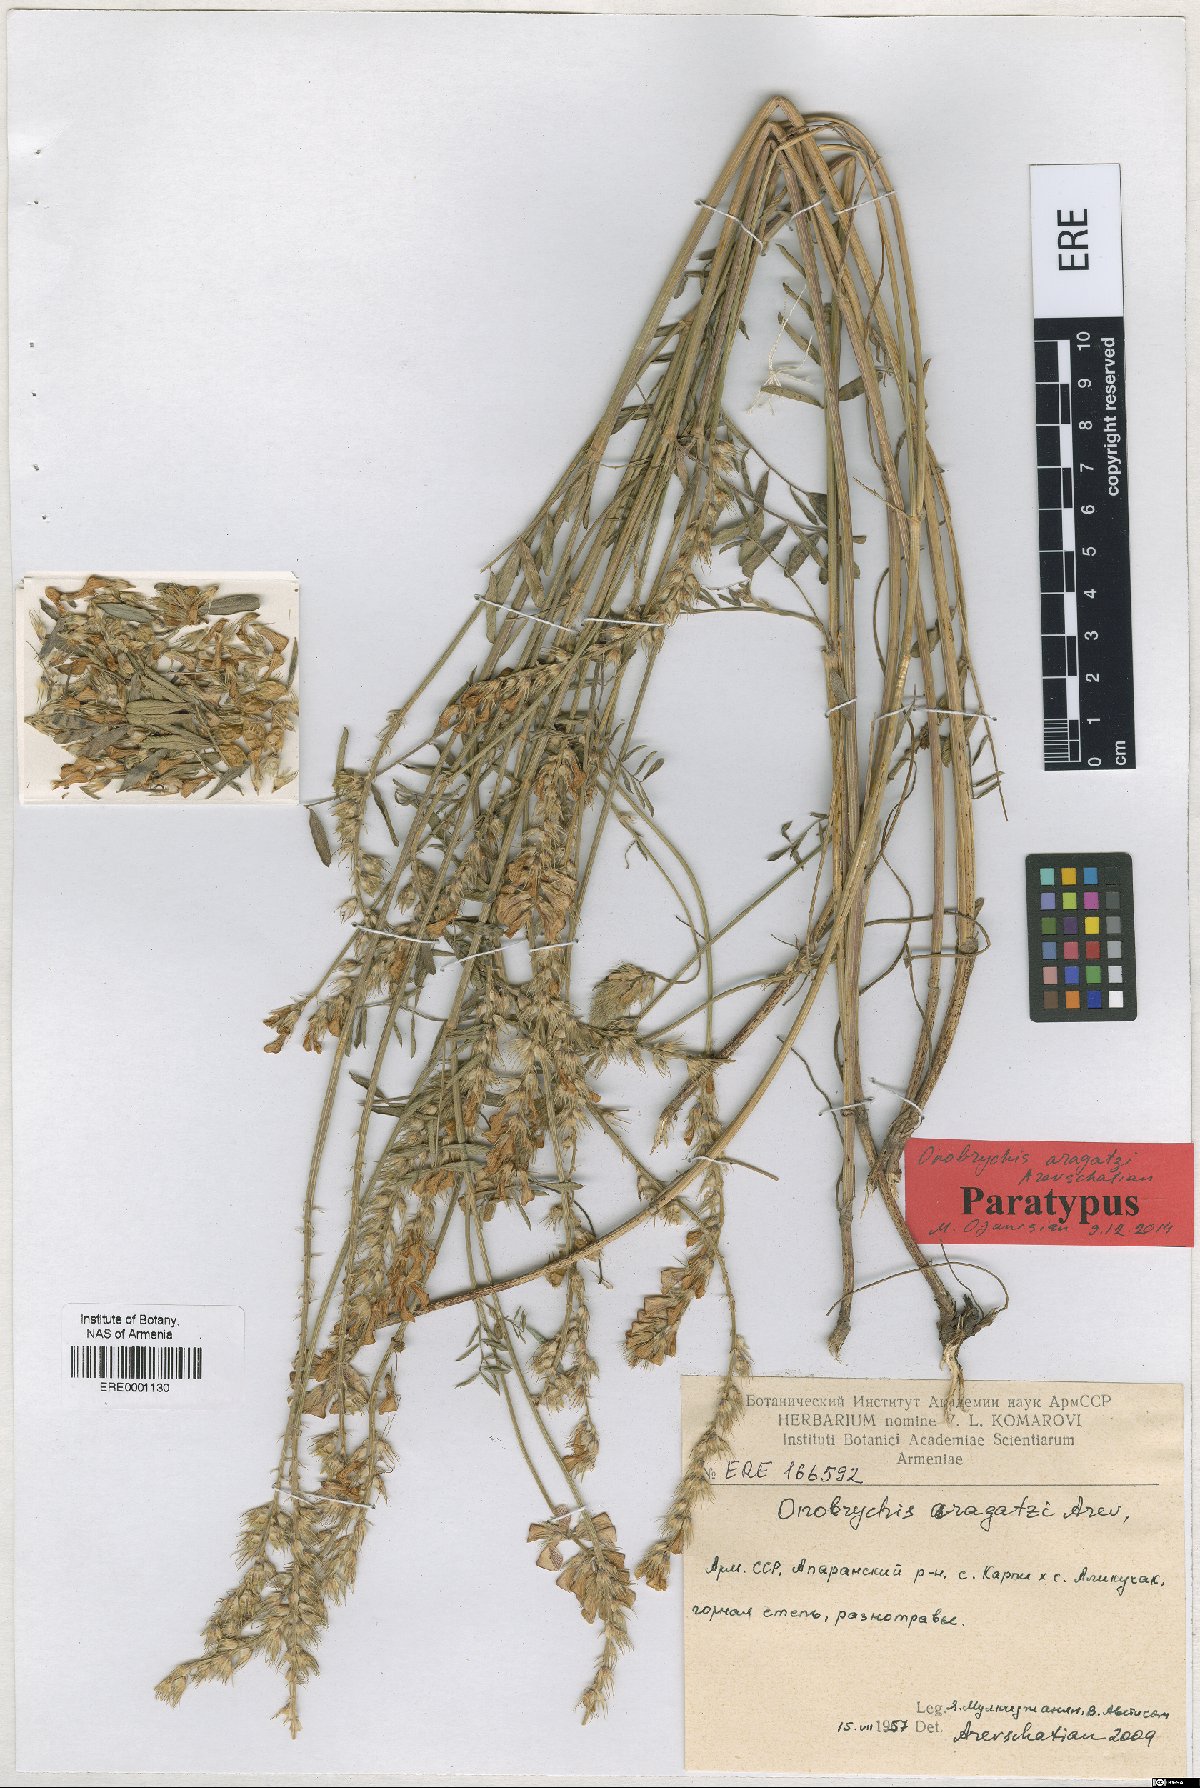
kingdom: Plantae
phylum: Tracheophyta
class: Magnoliopsida
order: Fabales
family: Fabaceae
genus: Onobrychis
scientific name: Onobrychis aragatzi
